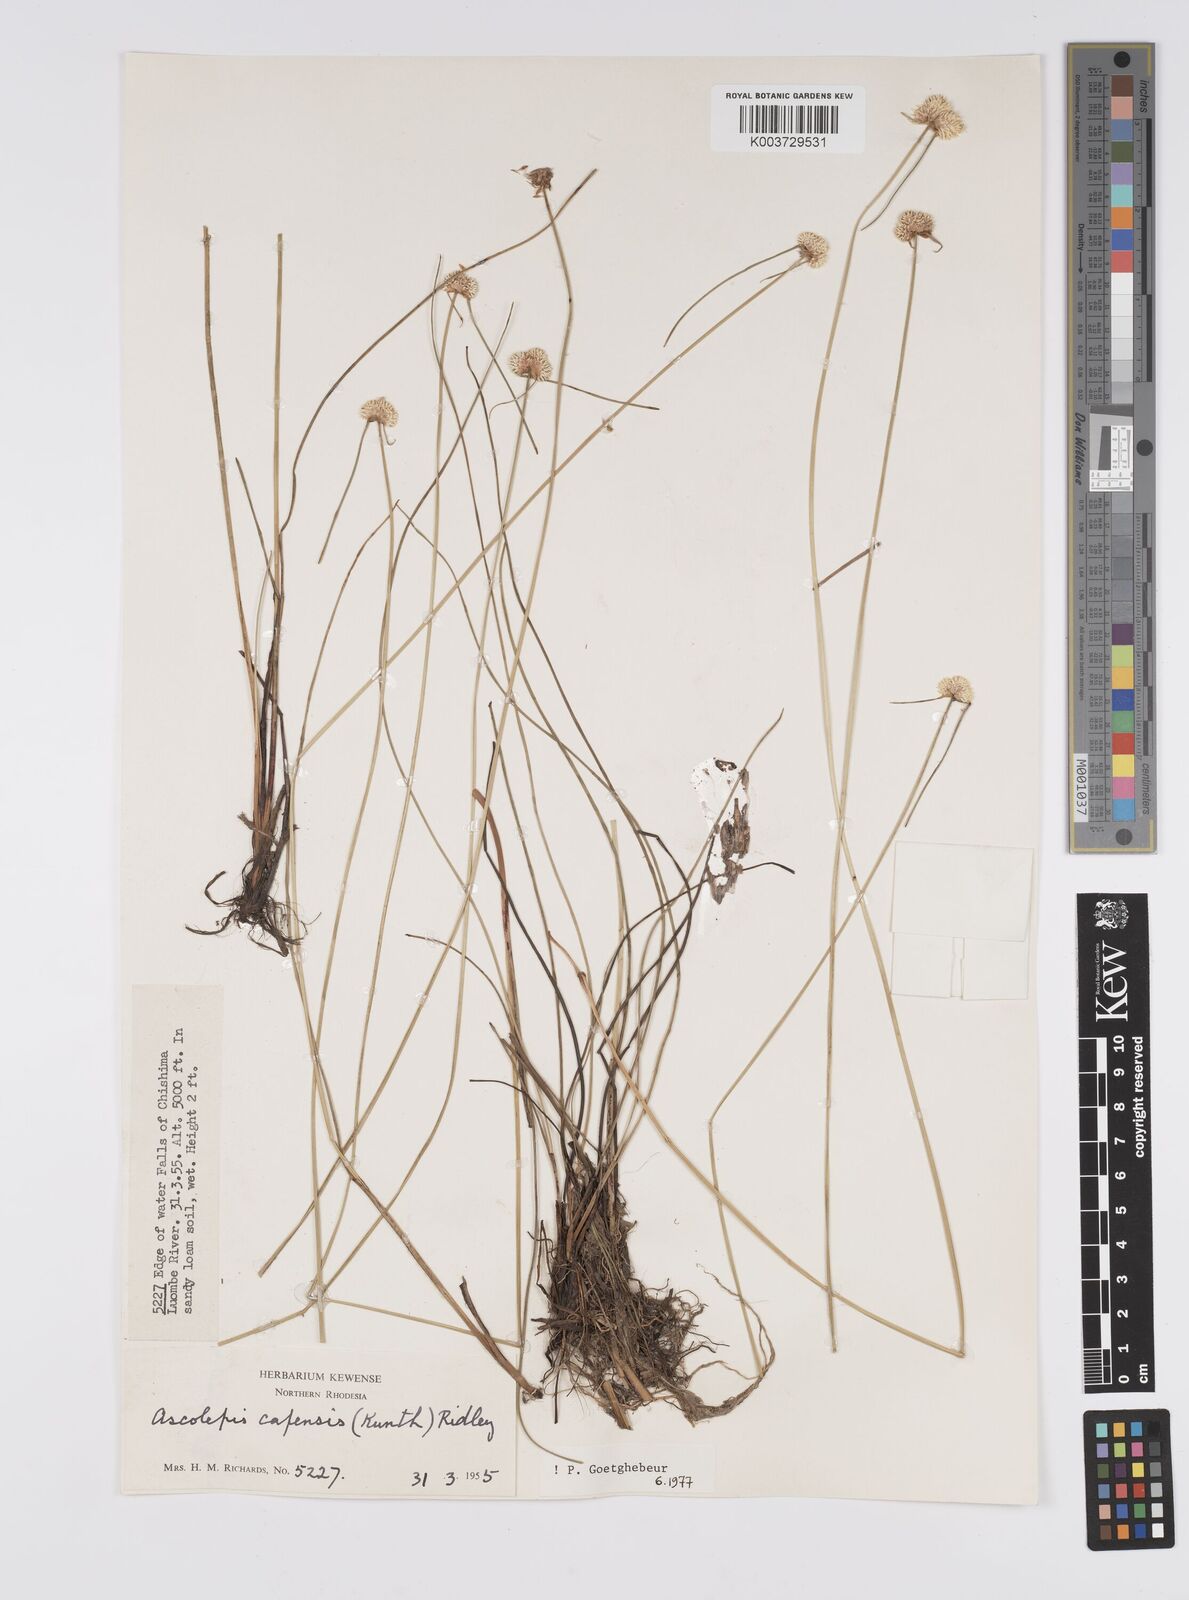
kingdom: Plantae
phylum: Tracheophyta
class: Liliopsida
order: Poales
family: Cyperaceae
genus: Cyperus
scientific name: Cyperus
